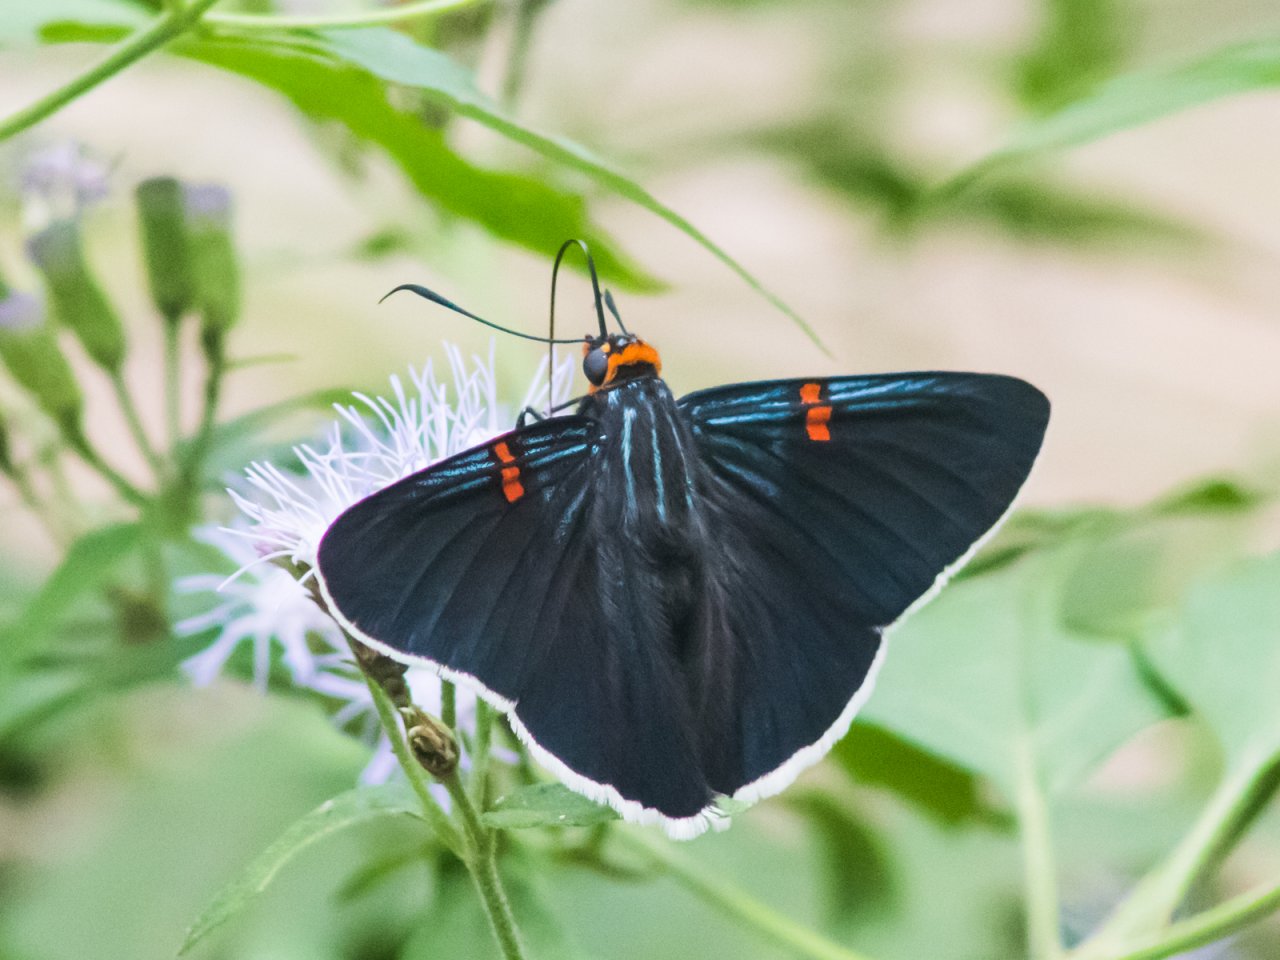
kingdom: Animalia
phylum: Arthropoda
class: Insecta
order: Lepidoptera
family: Hesperiidae
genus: Phocides
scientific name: Phocides polybius
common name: Guava Skipper
